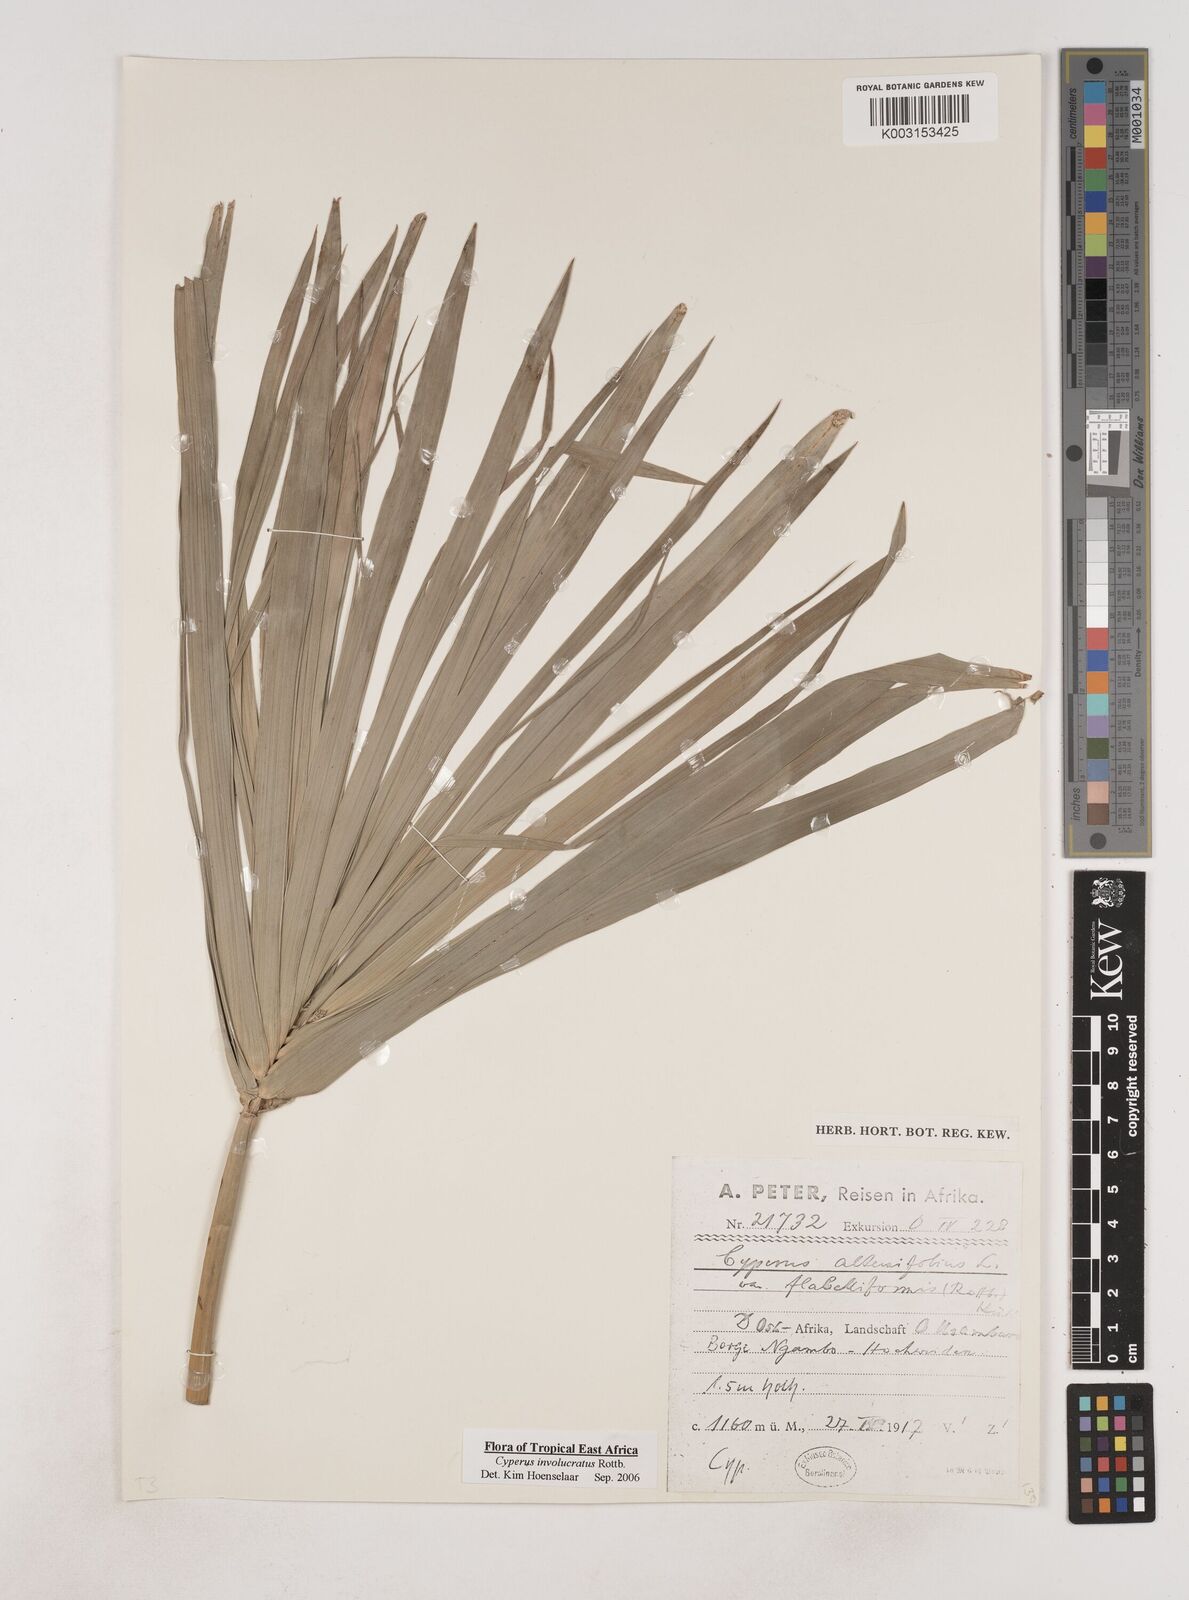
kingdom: Plantae
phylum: Tracheophyta
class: Liliopsida
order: Poales
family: Cyperaceae
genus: Cyperus
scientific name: Cyperus alternifolius
